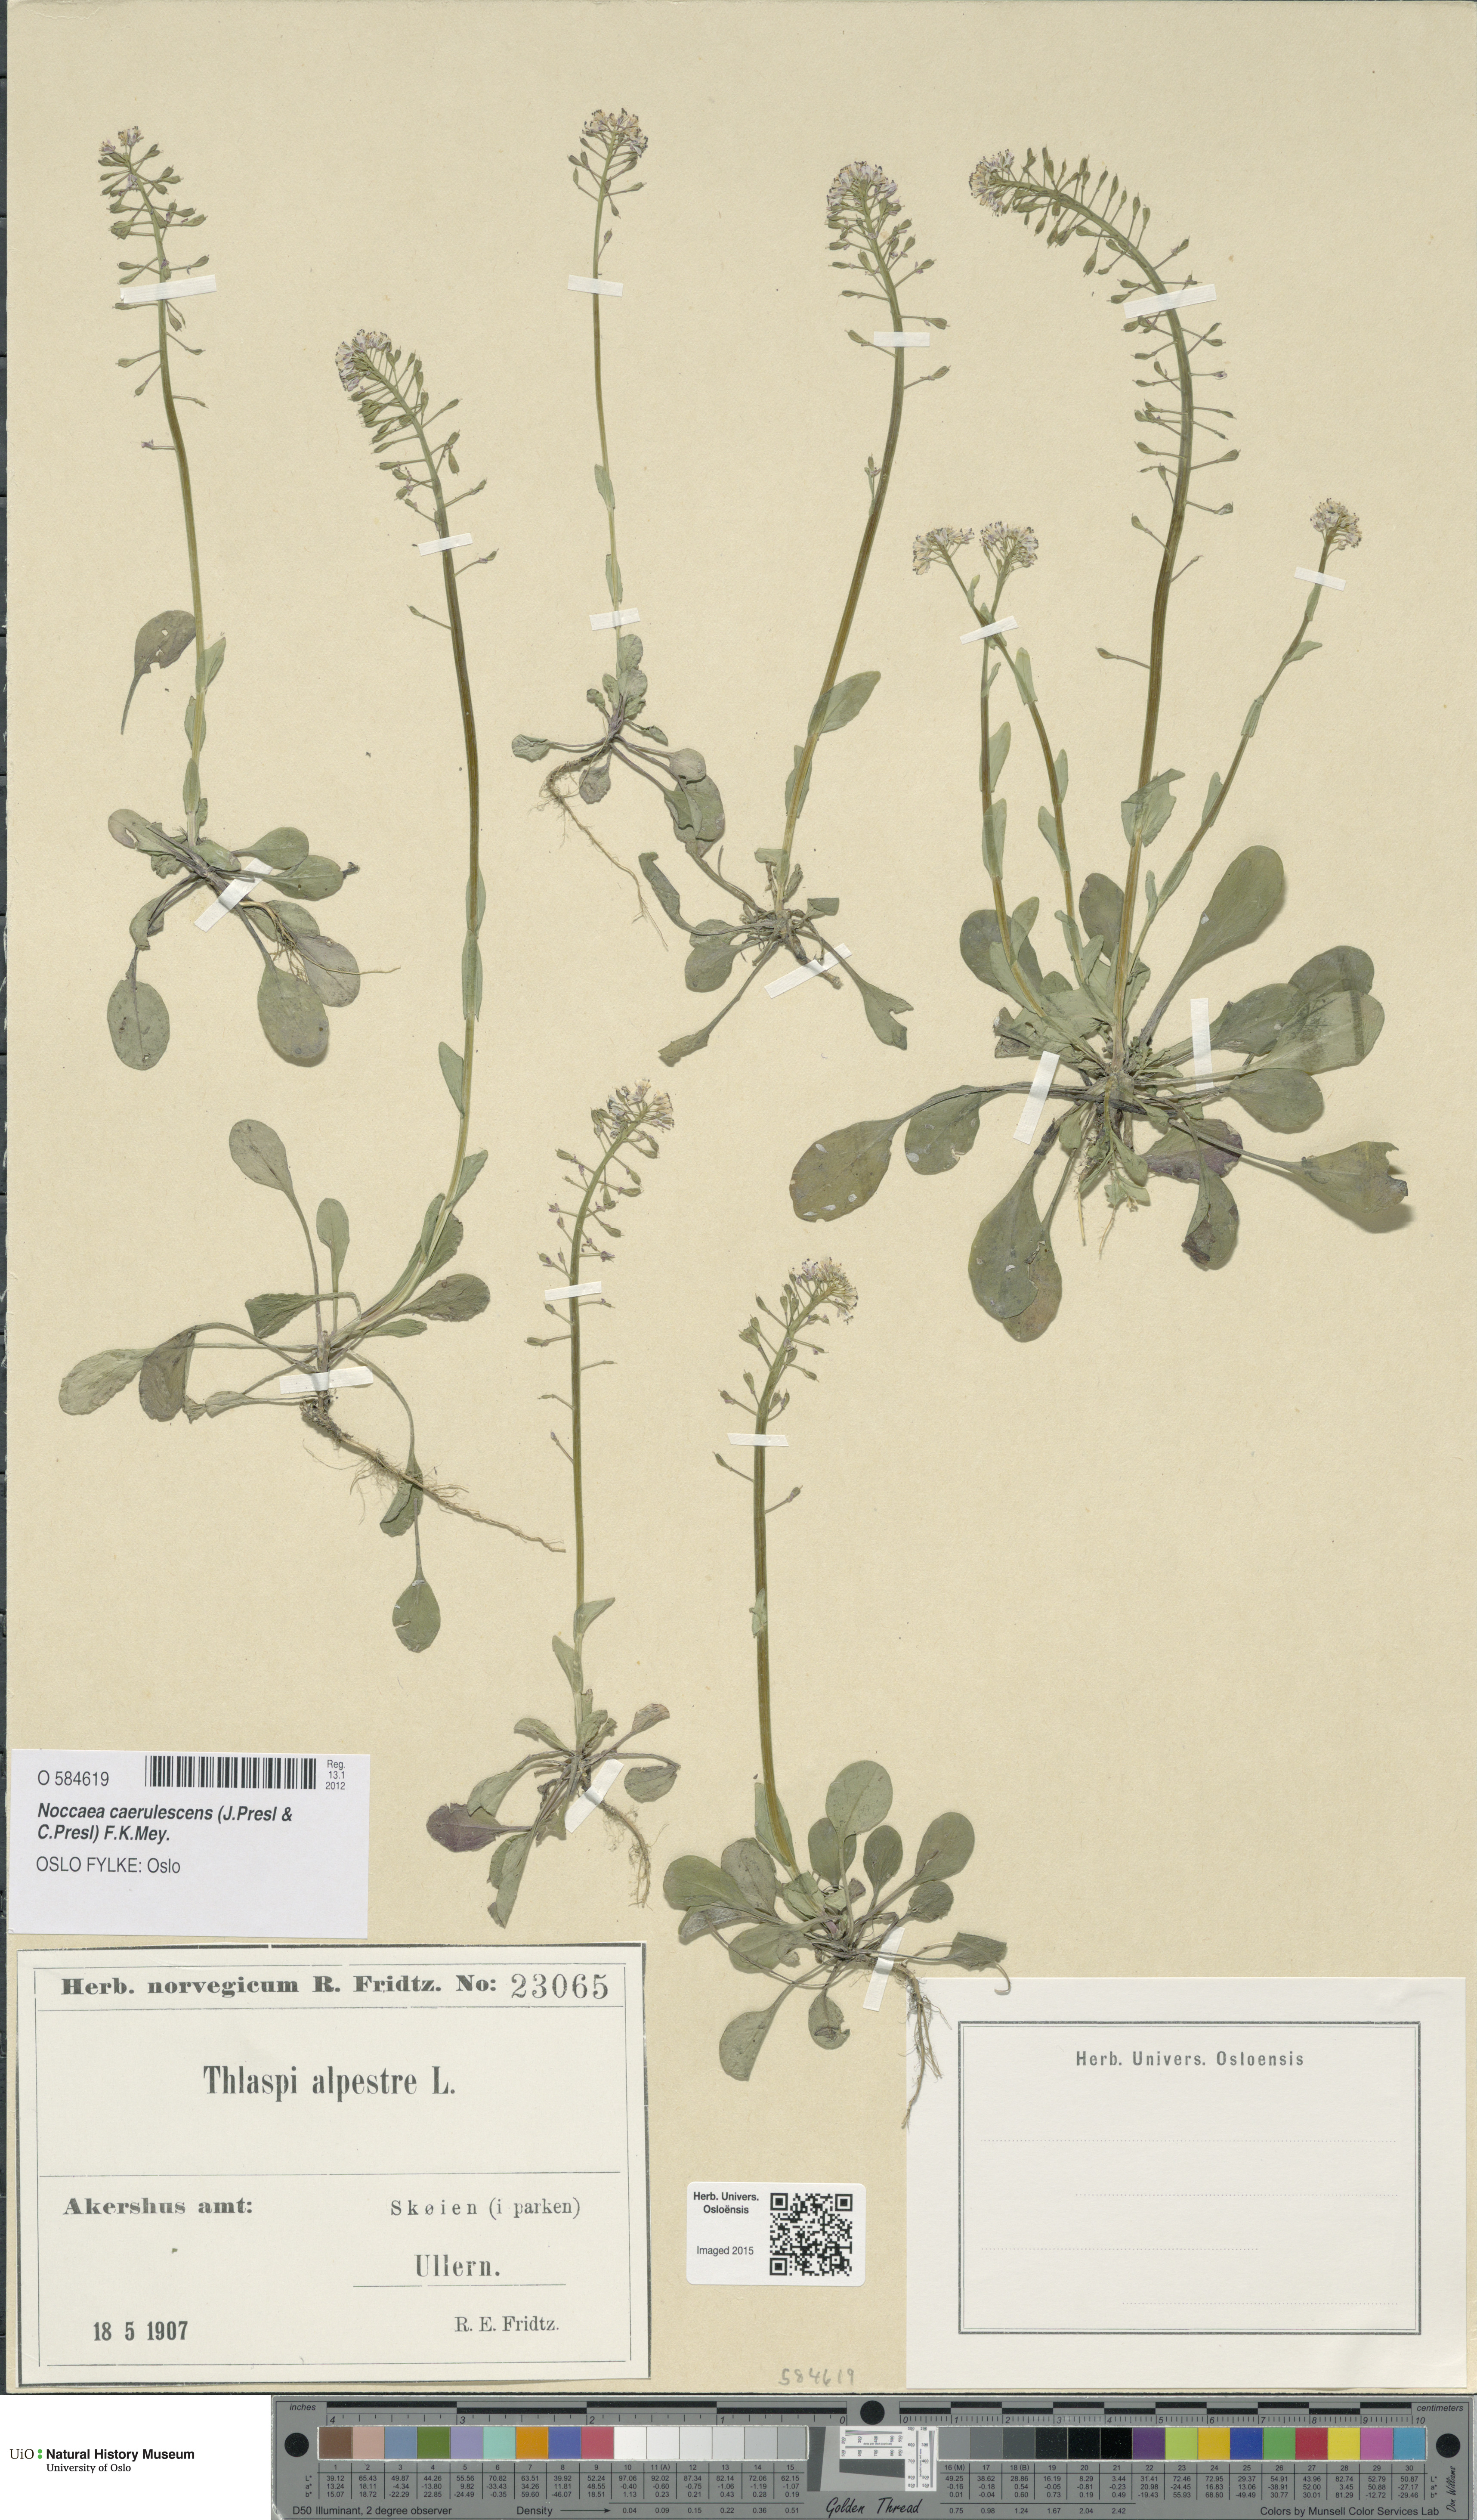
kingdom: Plantae
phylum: Tracheophyta
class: Magnoliopsida
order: Brassicales
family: Brassicaceae
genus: Noccaea
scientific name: Noccaea caerulescens
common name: Alpine pennycress
